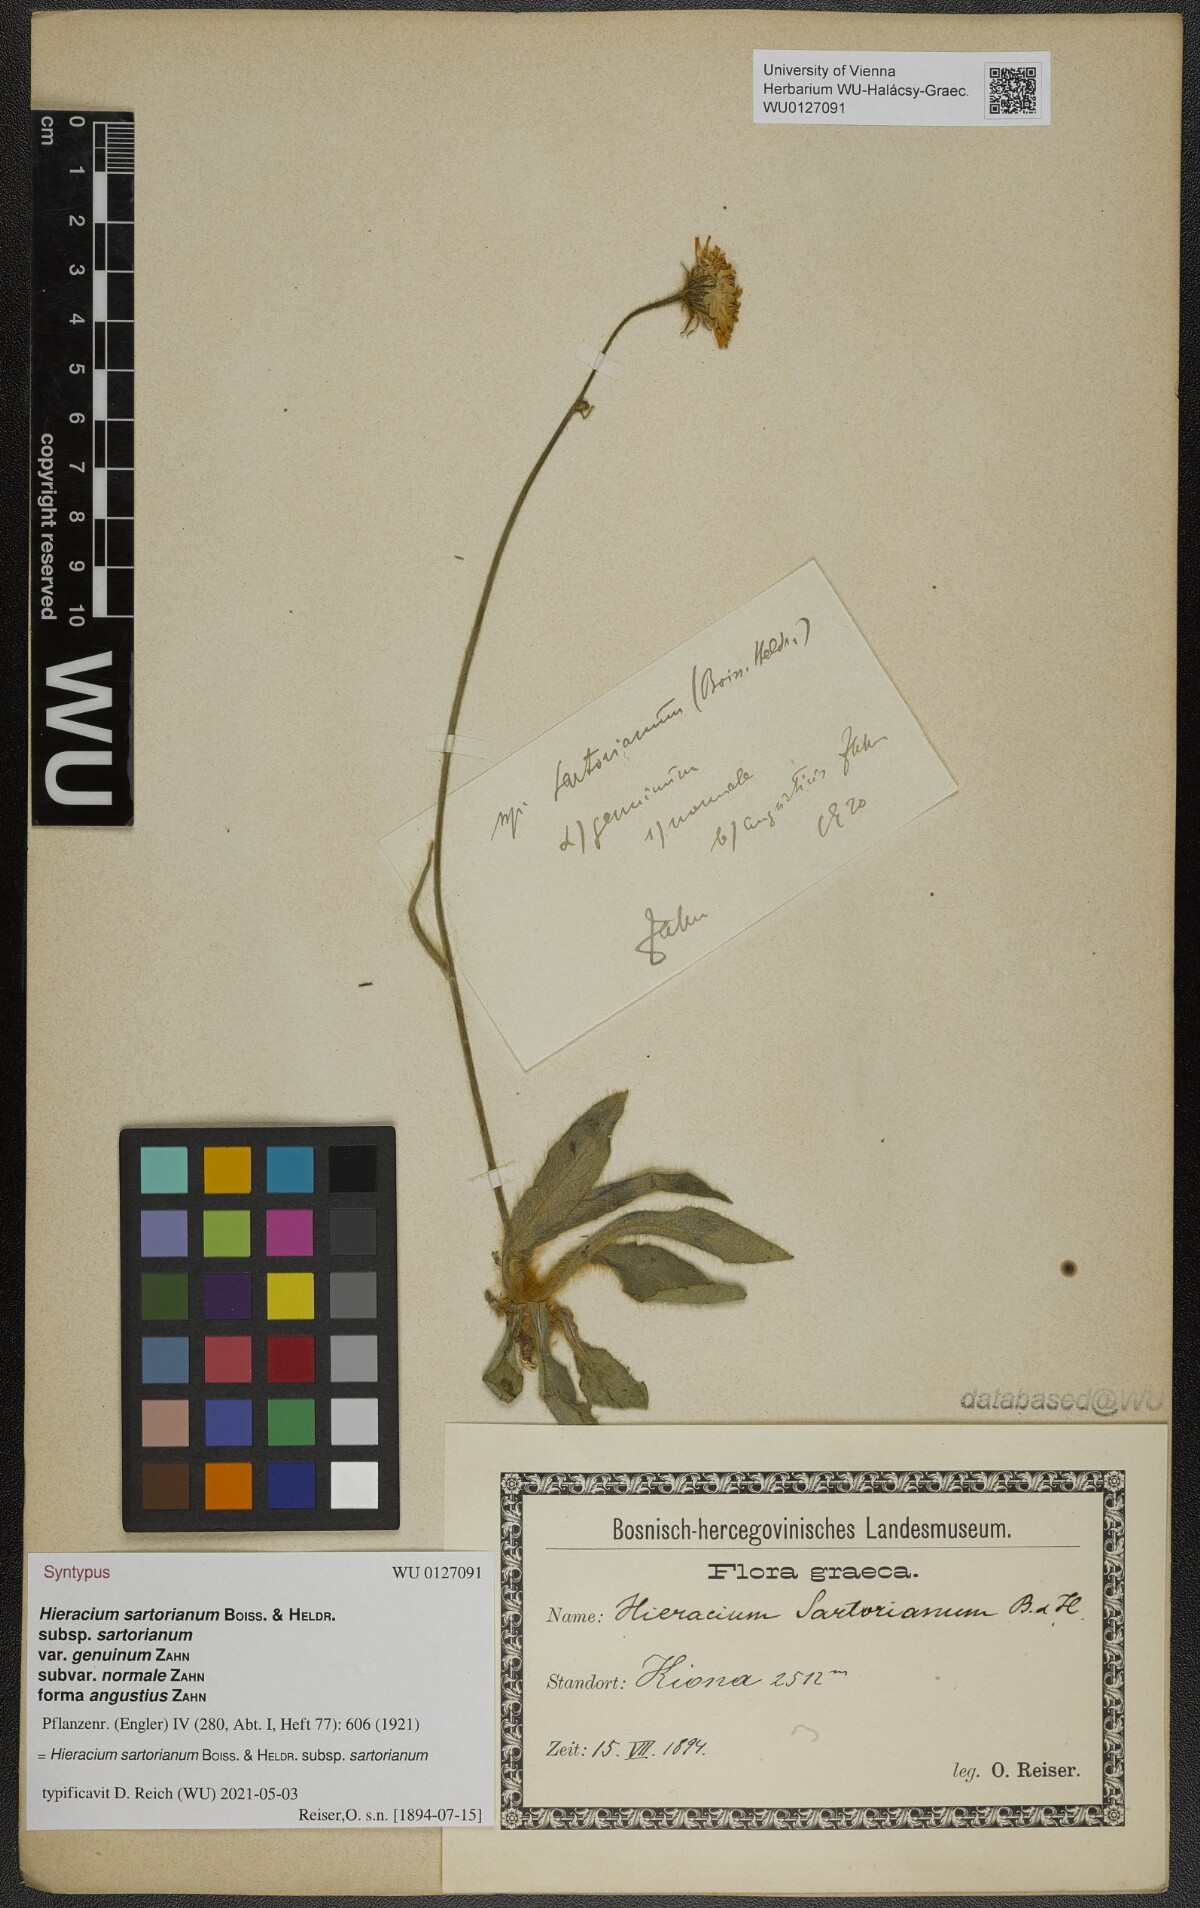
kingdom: Plantae
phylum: Tracheophyta
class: Magnoliopsida
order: Asterales
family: Asteraceae
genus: Hieracium
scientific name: Hieracium sartorianum
